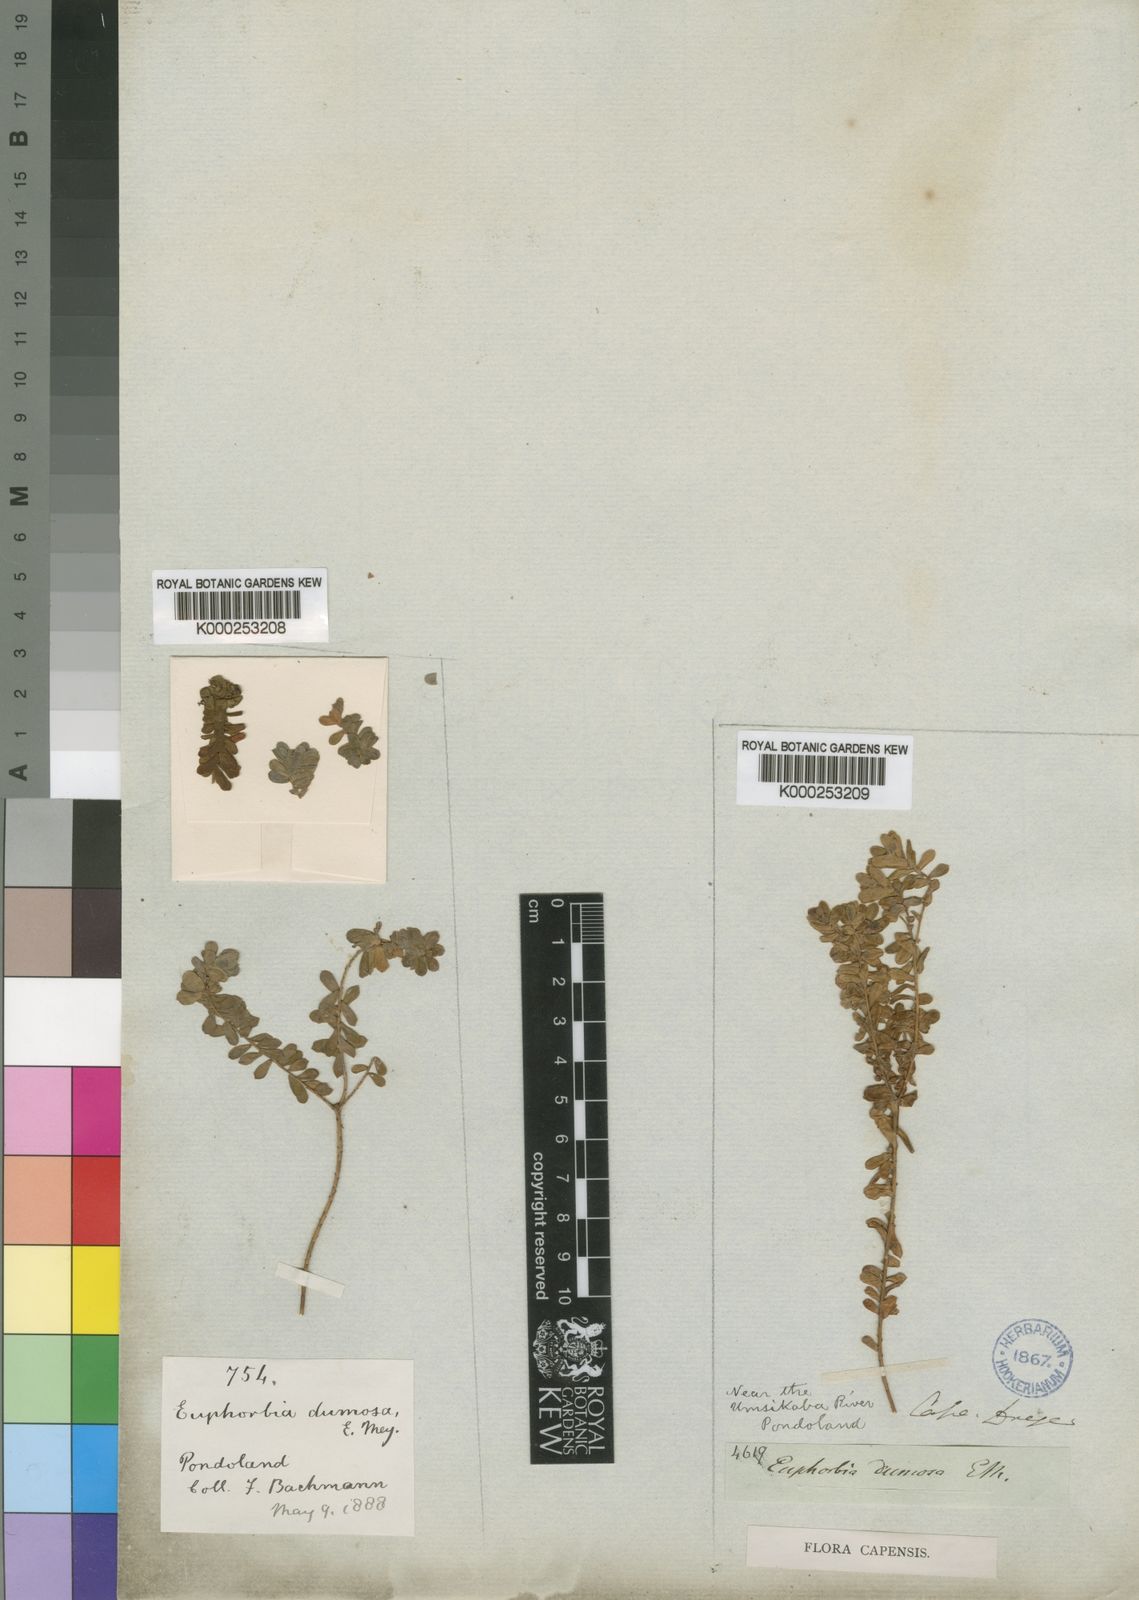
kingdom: Plantae
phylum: Tracheophyta
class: Magnoliopsida
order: Malpighiales
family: Euphorbiaceae
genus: Euphorbia
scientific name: Euphorbia foliosa
